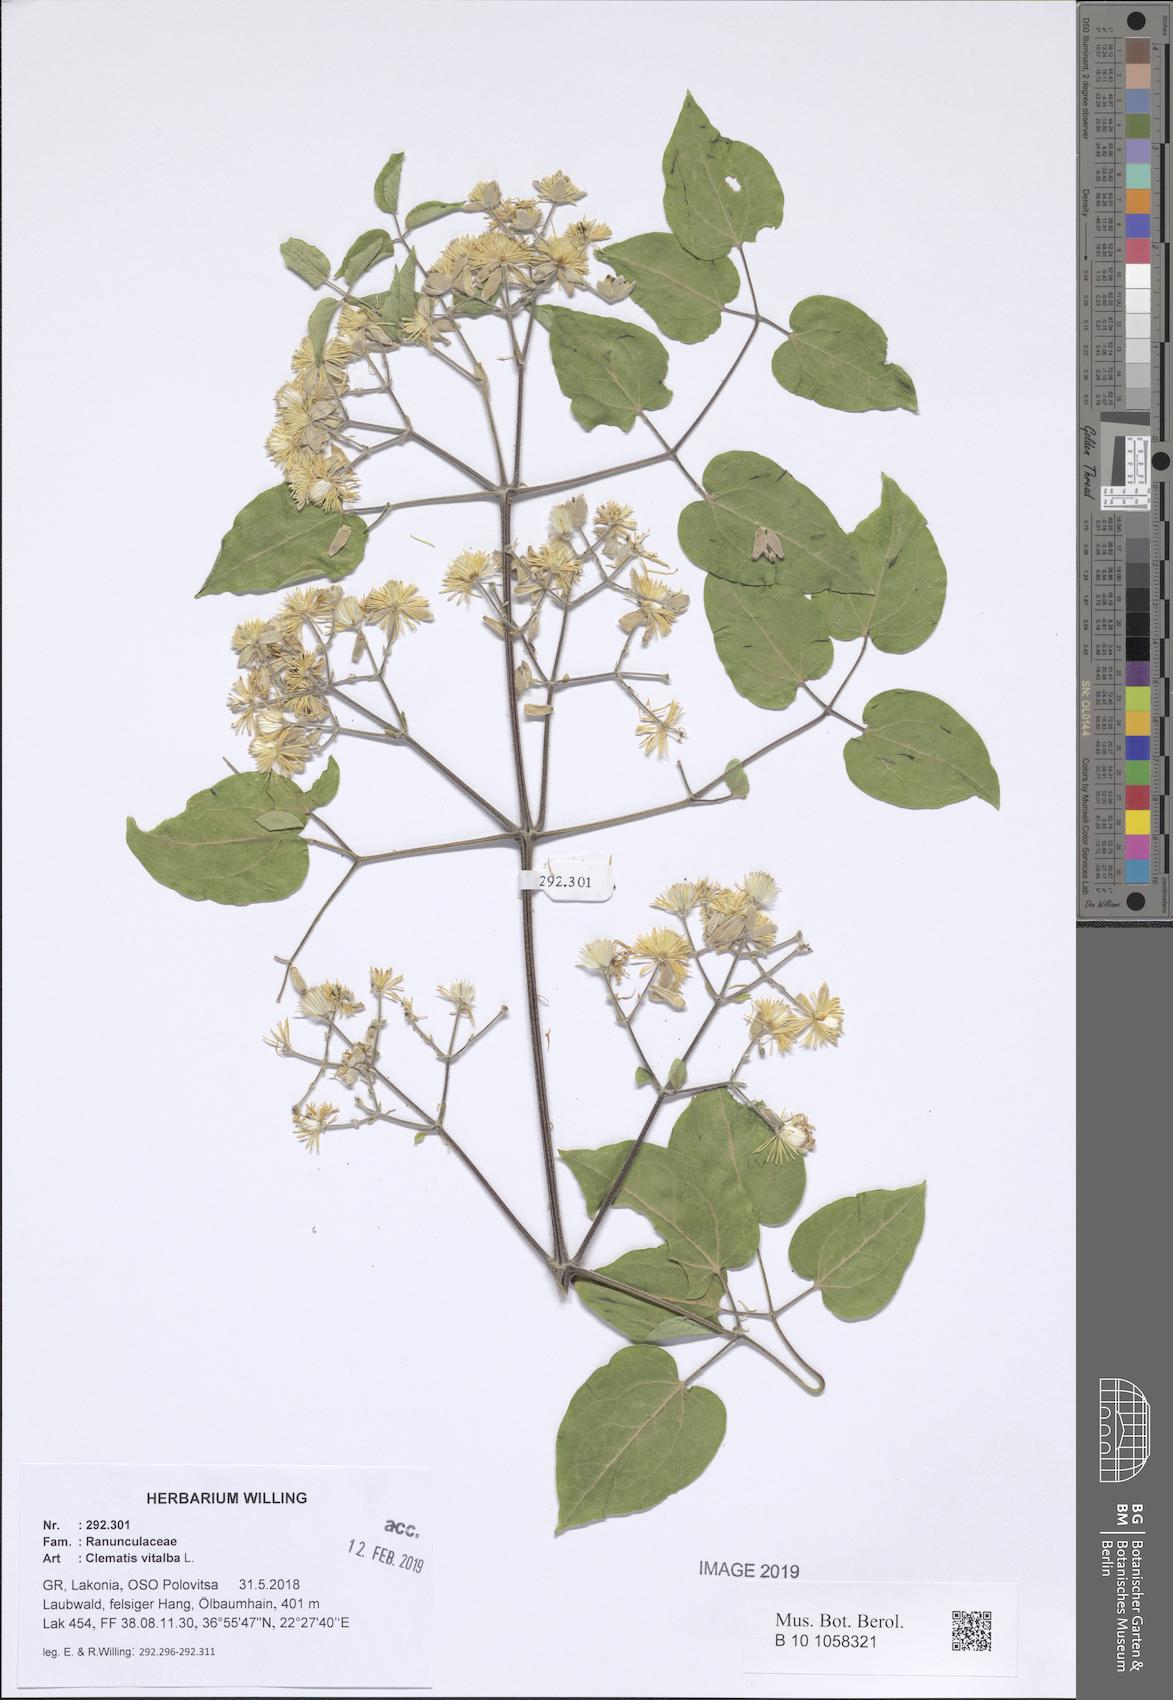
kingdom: Plantae
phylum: Tracheophyta
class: Magnoliopsida
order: Ranunculales
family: Ranunculaceae
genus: Clematis
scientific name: Clematis vitalba
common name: Evergreen clematis
